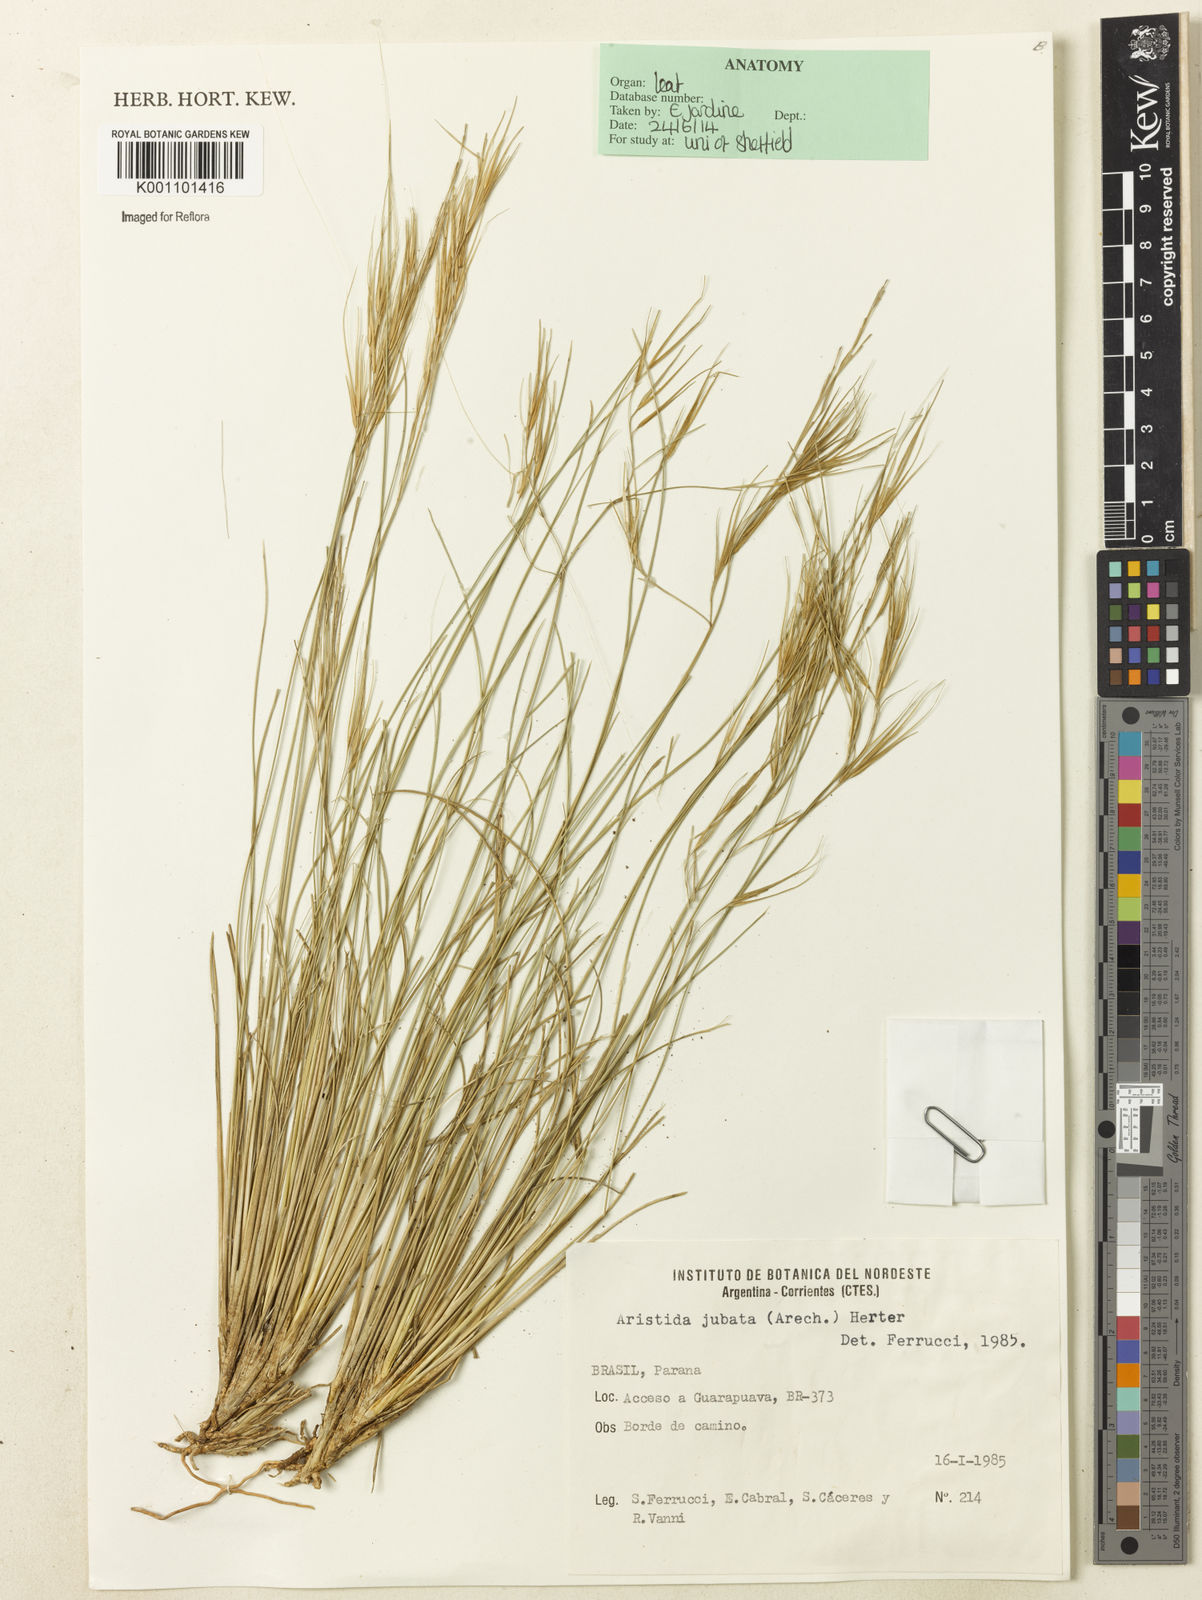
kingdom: Plantae
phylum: Tracheophyta
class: Liliopsida
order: Poales
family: Poaceae
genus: Aristida
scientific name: Aristida jubata
